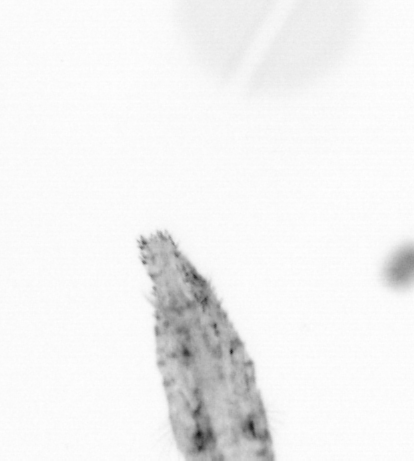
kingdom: Animalia
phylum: Arthropoda
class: Copepoda
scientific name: Copepoda
